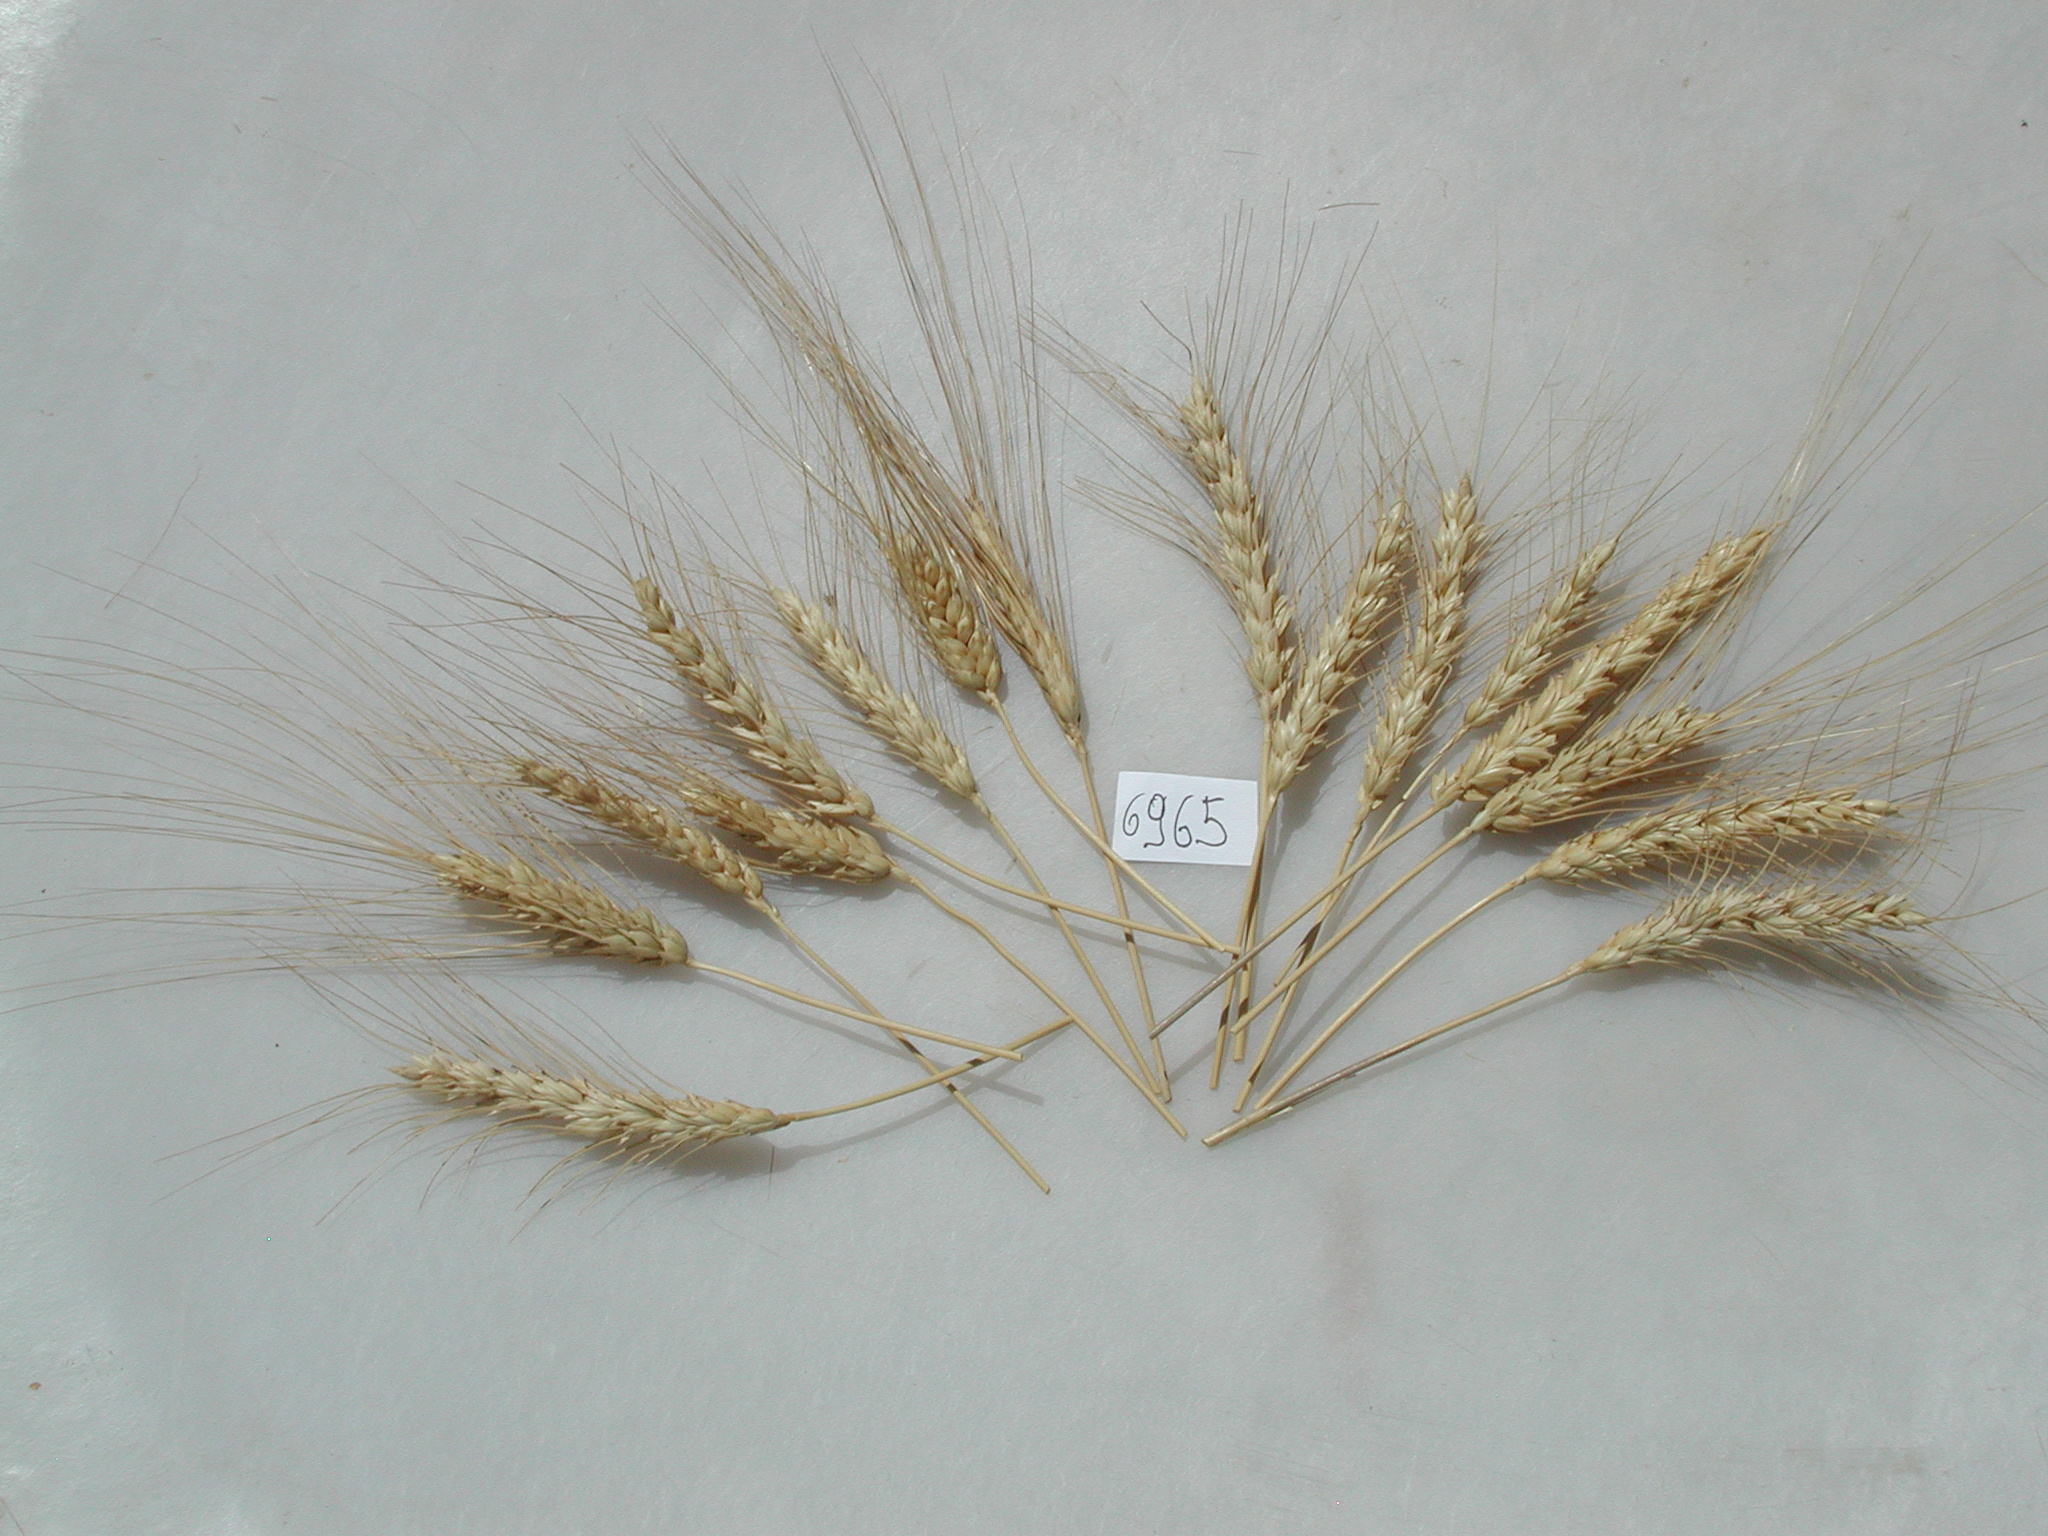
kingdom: Plantae
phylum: Tracheophyta
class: Liliopsida
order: Poales
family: Poaceae
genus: Triticum
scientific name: Triticum turgidum
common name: Wheat
